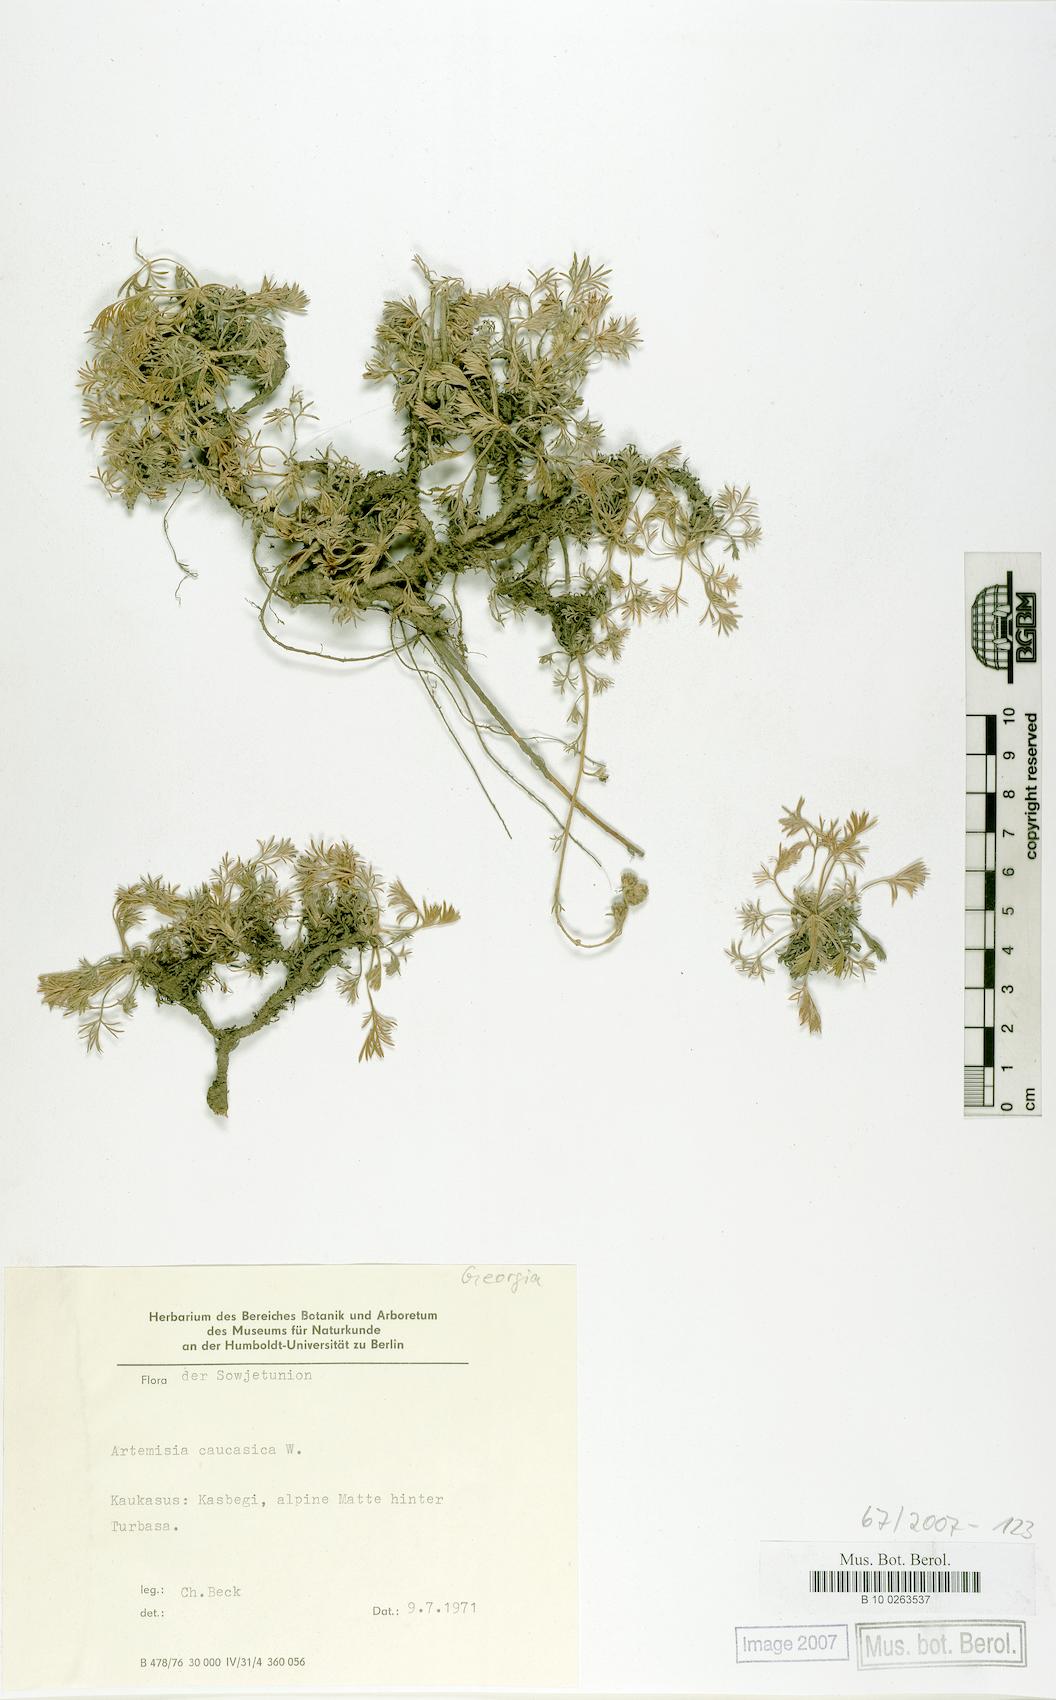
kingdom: Plantae
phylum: Tracheophyta
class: Magnoliopsida
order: Asterales
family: Asteraceae
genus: Artemisia
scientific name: Artemisia alpina
